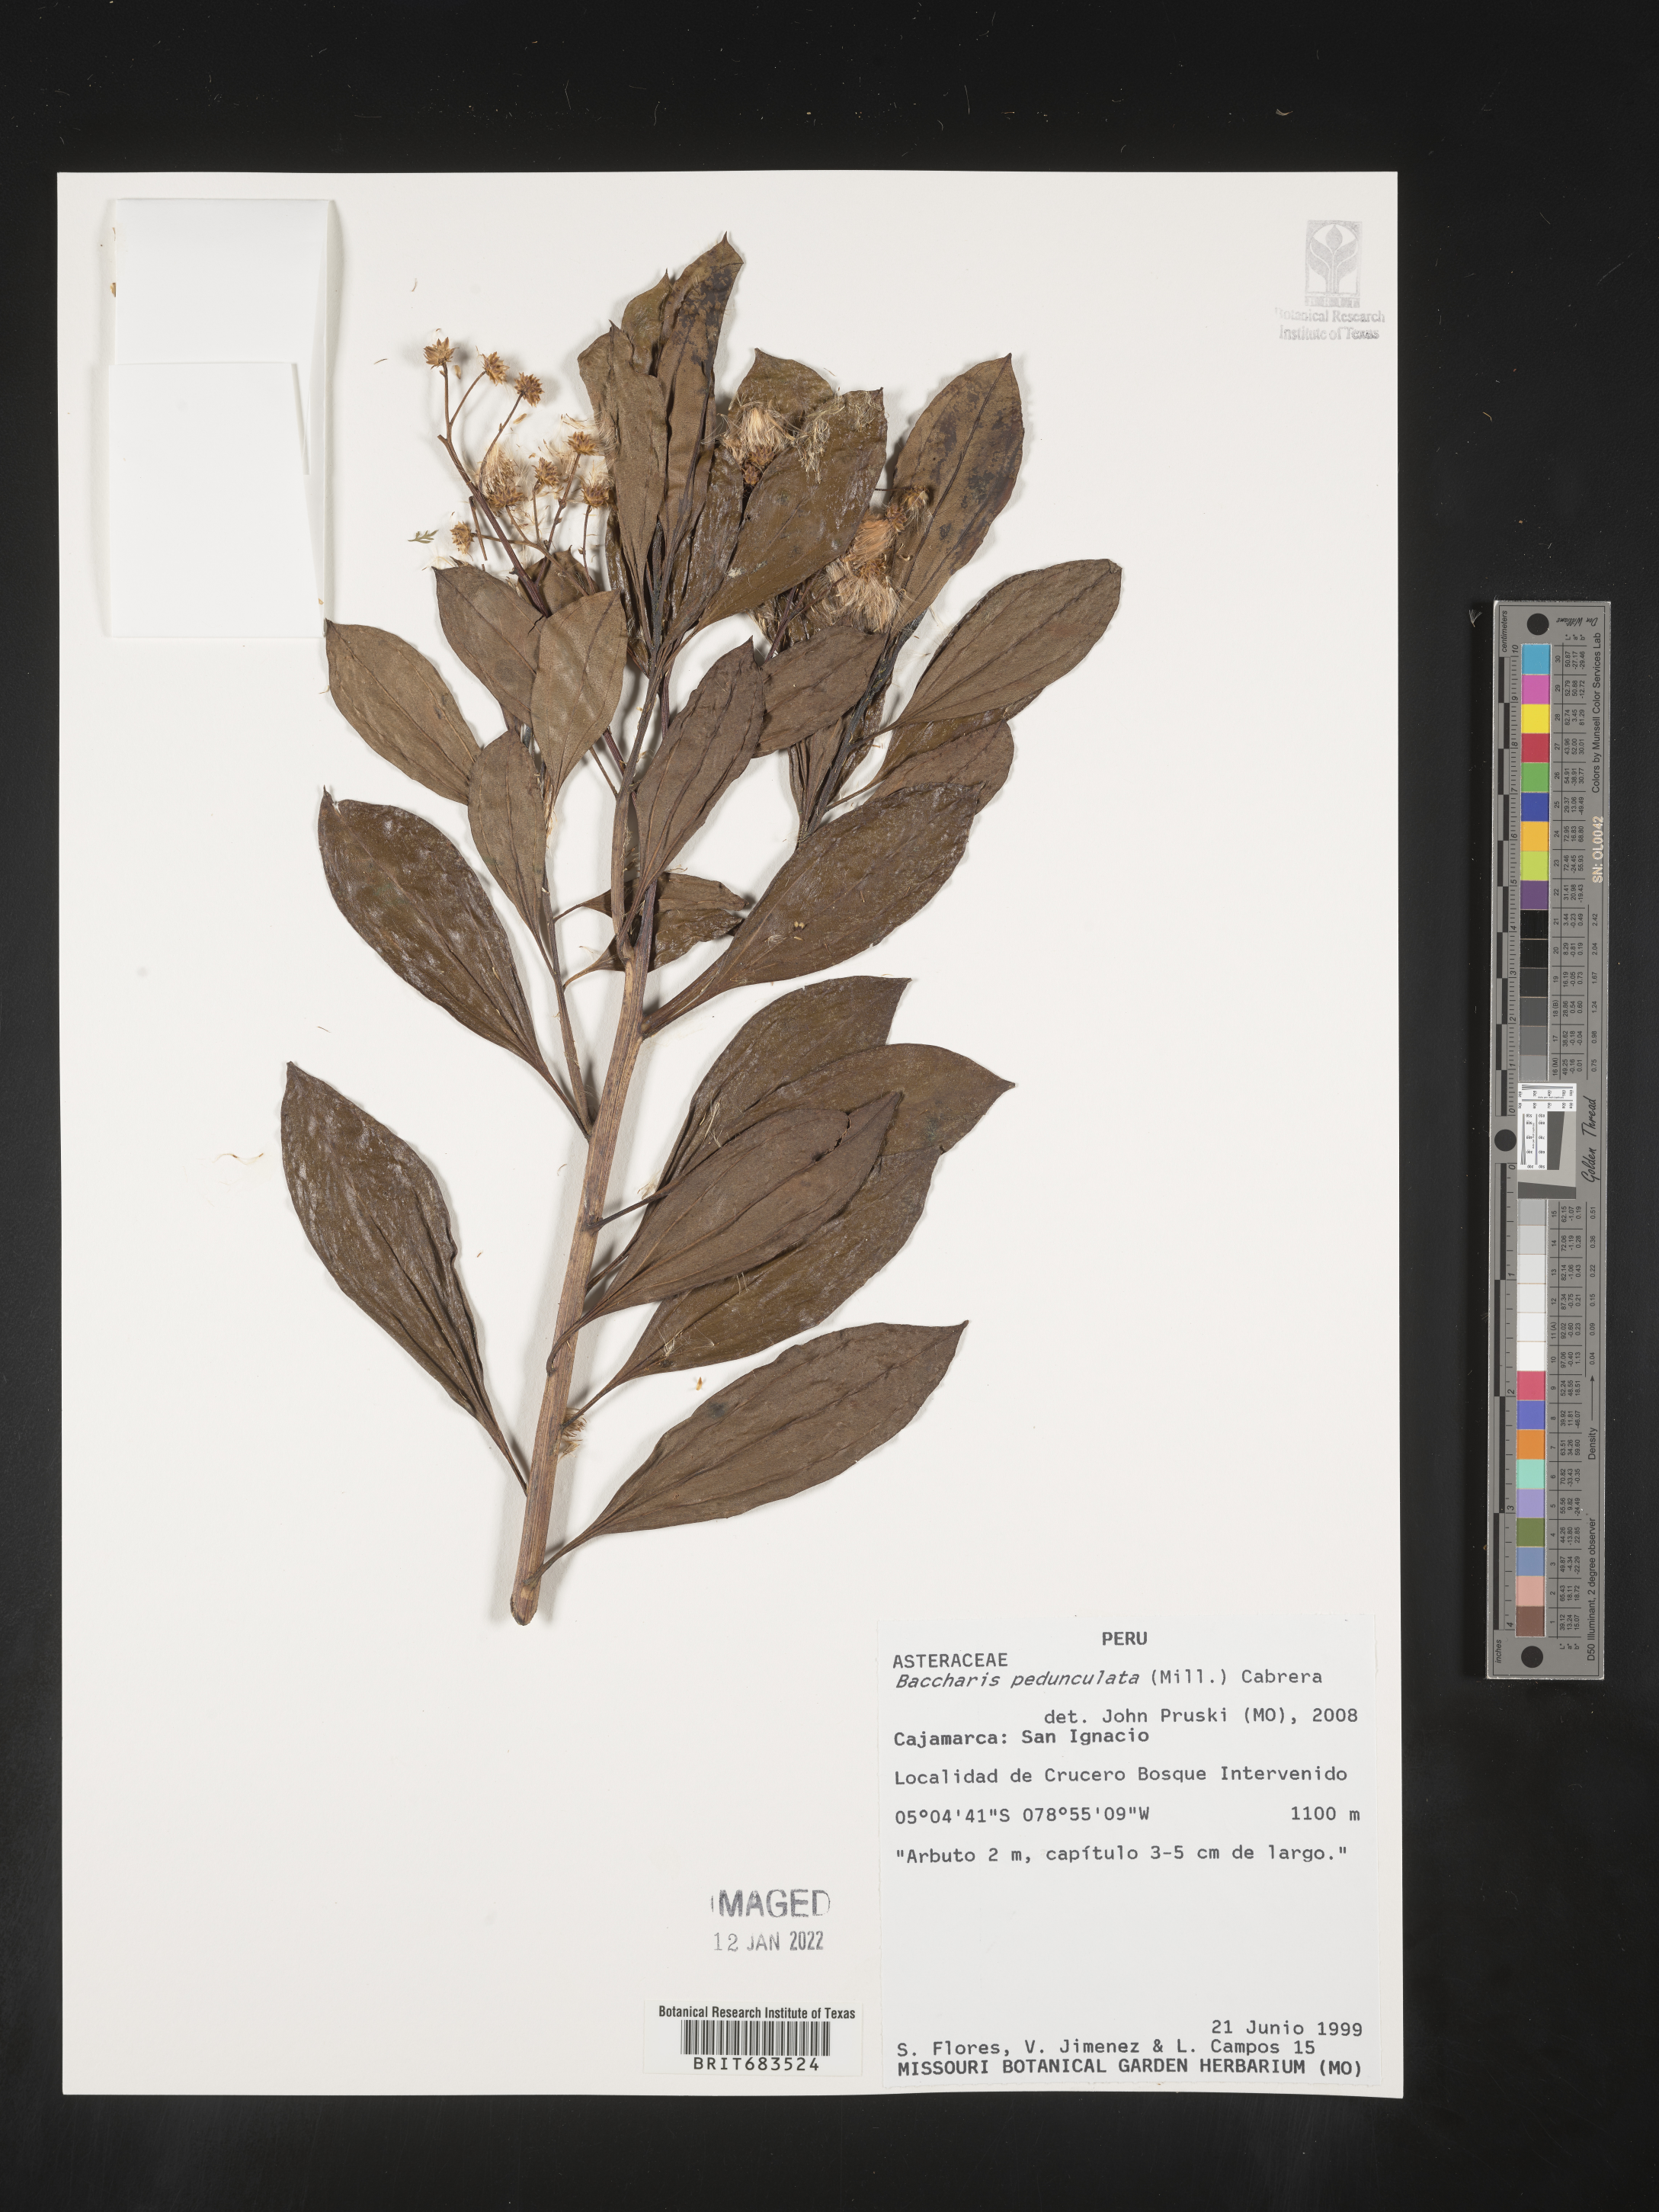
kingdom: Plantae
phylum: Tracheophyta
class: Magnoliopsida
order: Asterales
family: Asteraceae
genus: Baccharis
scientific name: Baccharis
